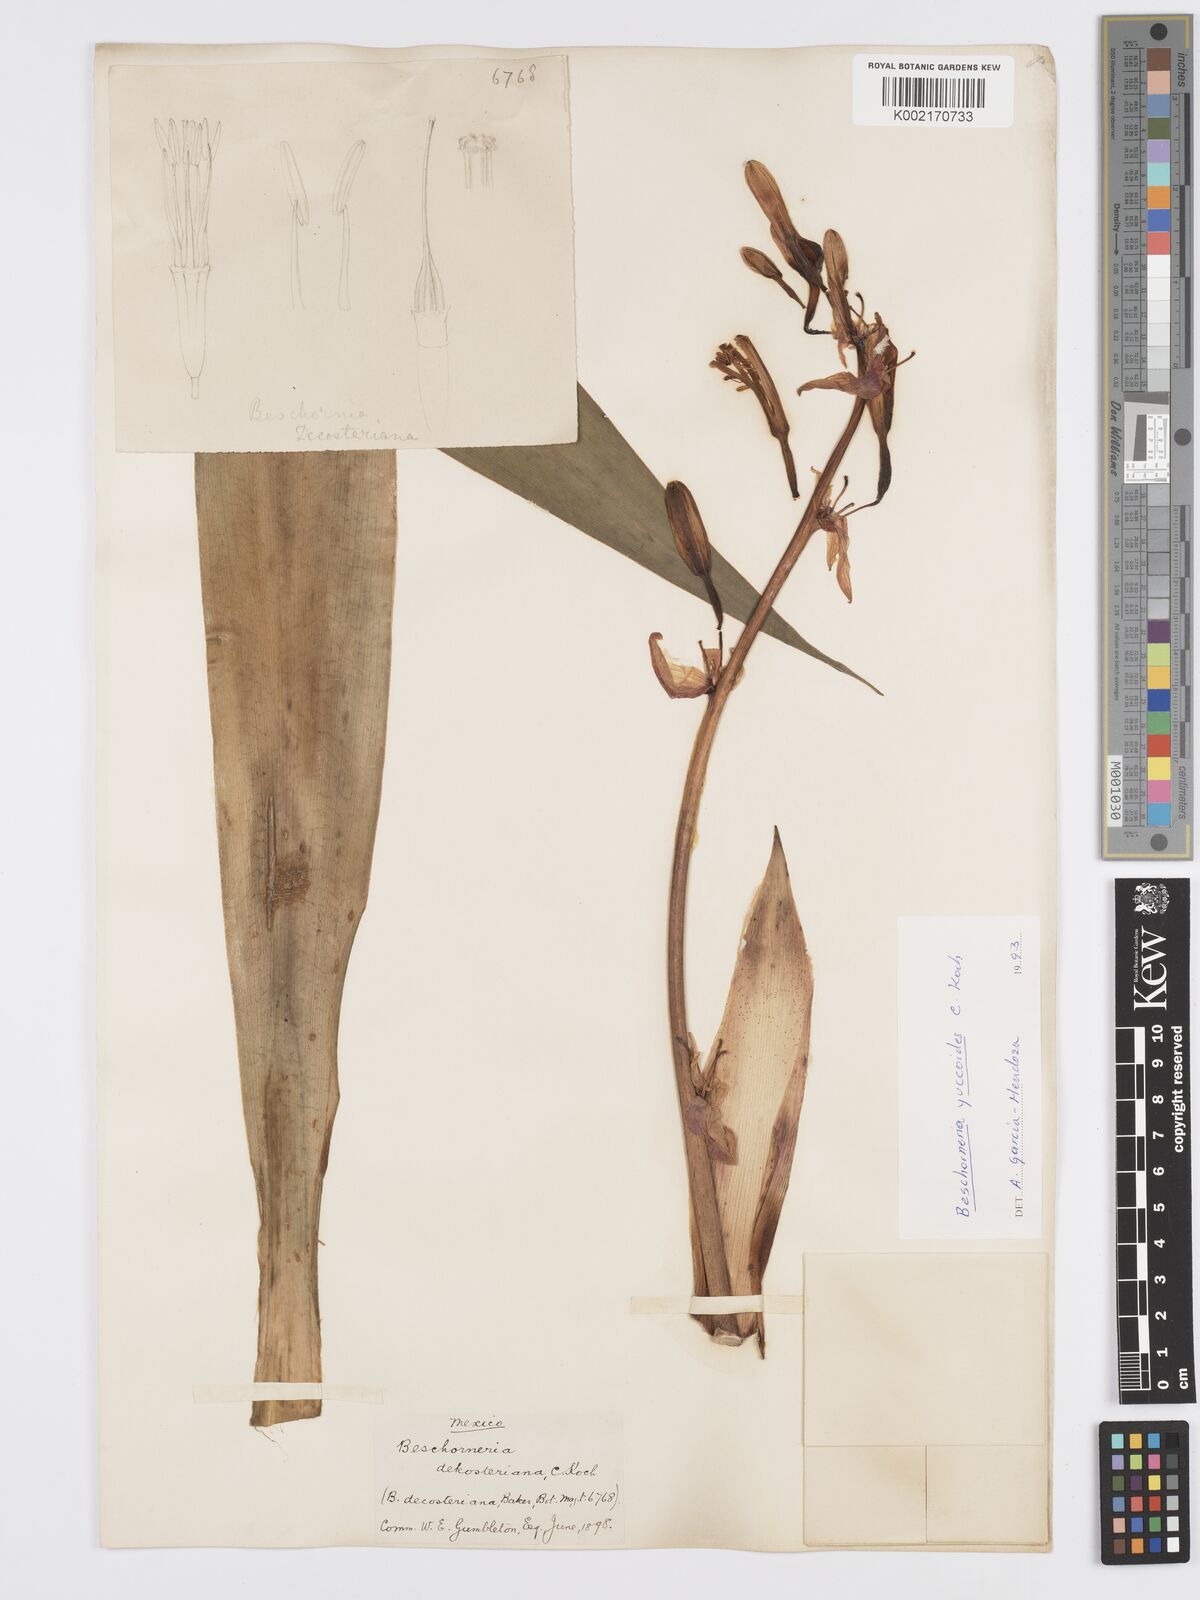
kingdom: Plantae
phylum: Tracheophyta
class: Liliopsida
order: Asparagales
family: Asparagaceae
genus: Beschorneria
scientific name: Beschorneria yuccoides
